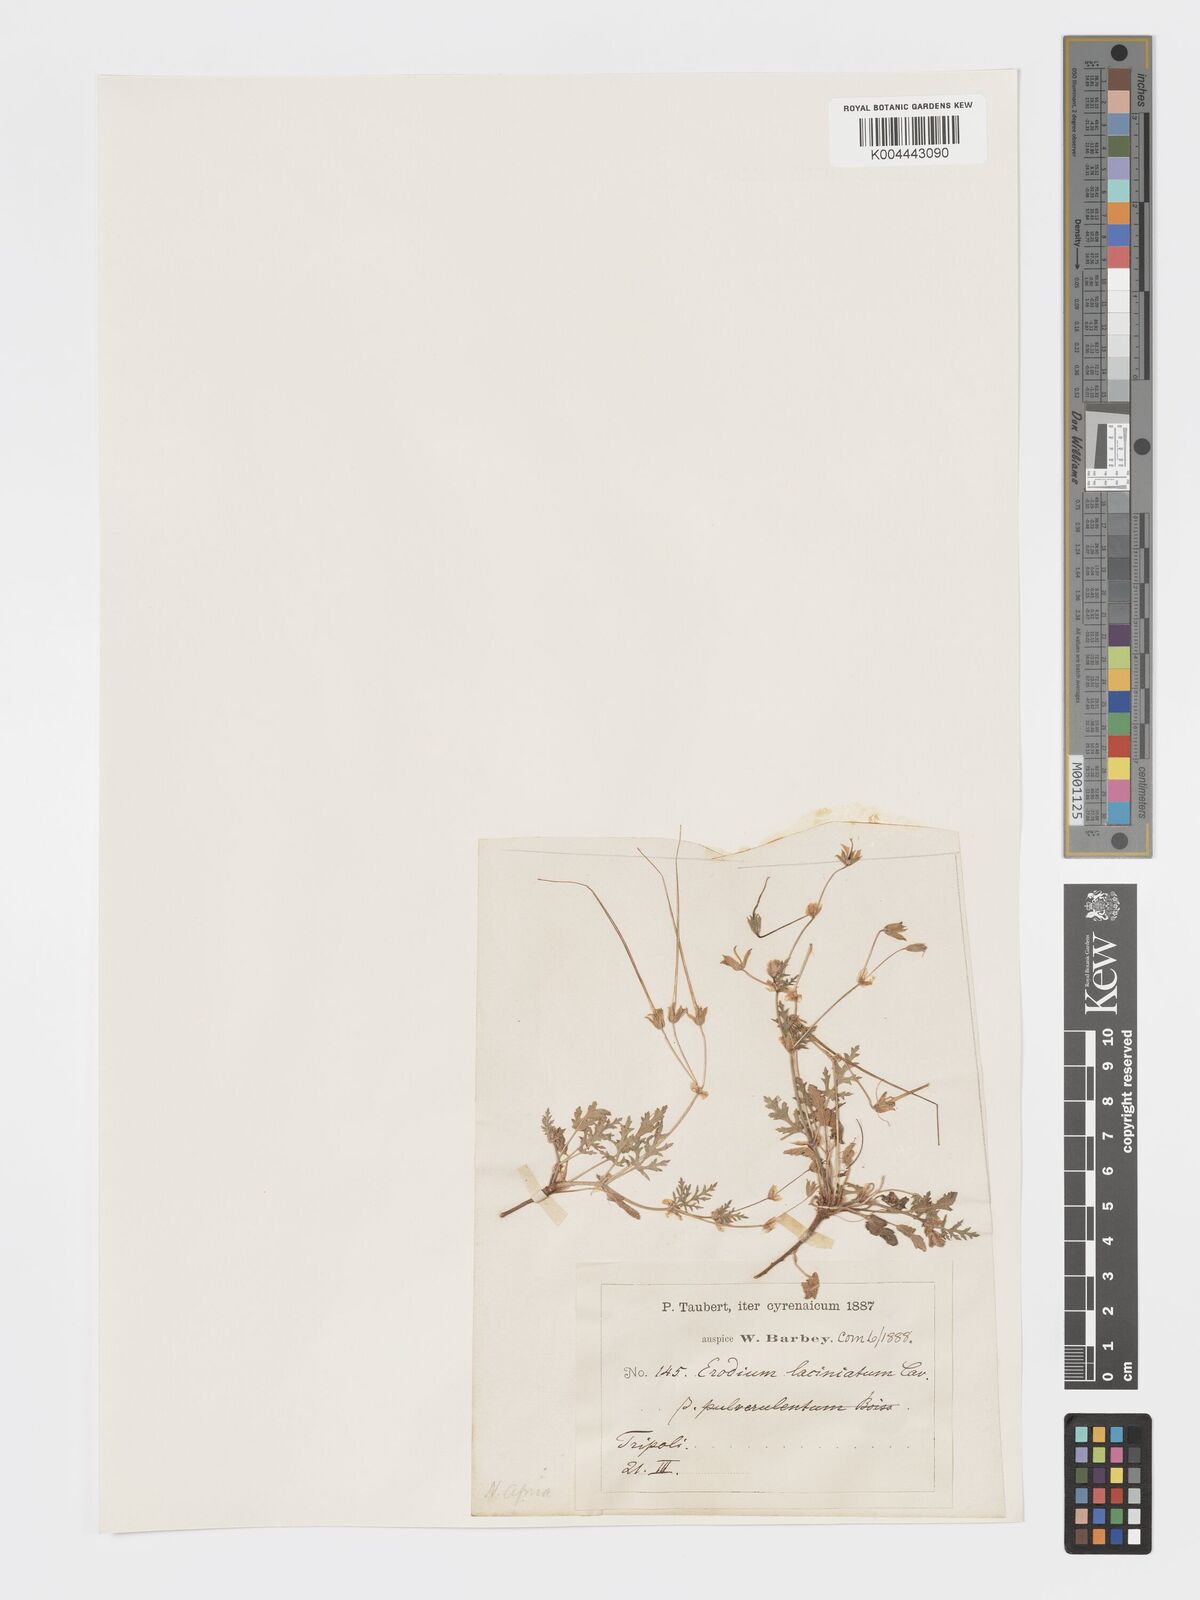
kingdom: Plantae
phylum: Tracheophyta
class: Magnoliopsida
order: Geraniales
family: Geraniaceae
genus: Erodium
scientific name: Erodium laciniatum
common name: Cutleaf stork's bill
